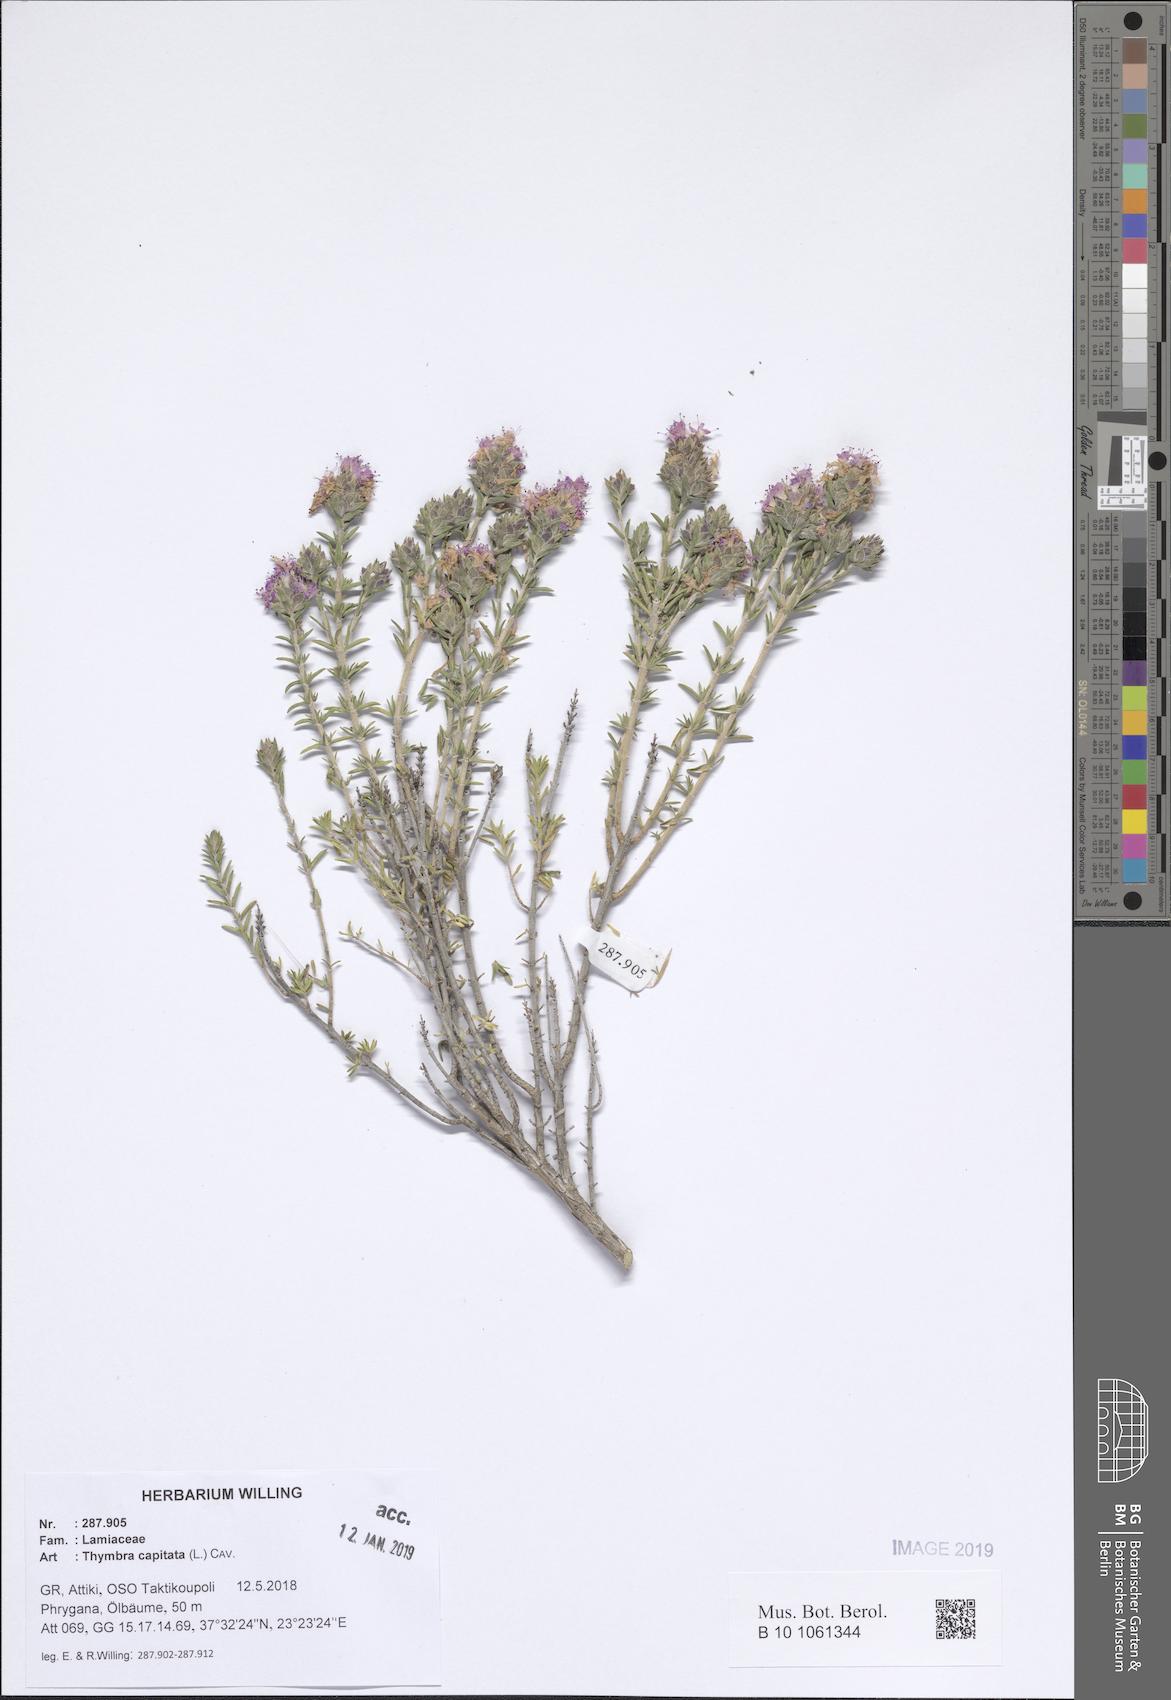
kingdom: Plantae
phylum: Tracheophyta
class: Magnoliopsida
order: Lamiales
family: Lamiaceae
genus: Thymbra
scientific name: Thymbra capitata
